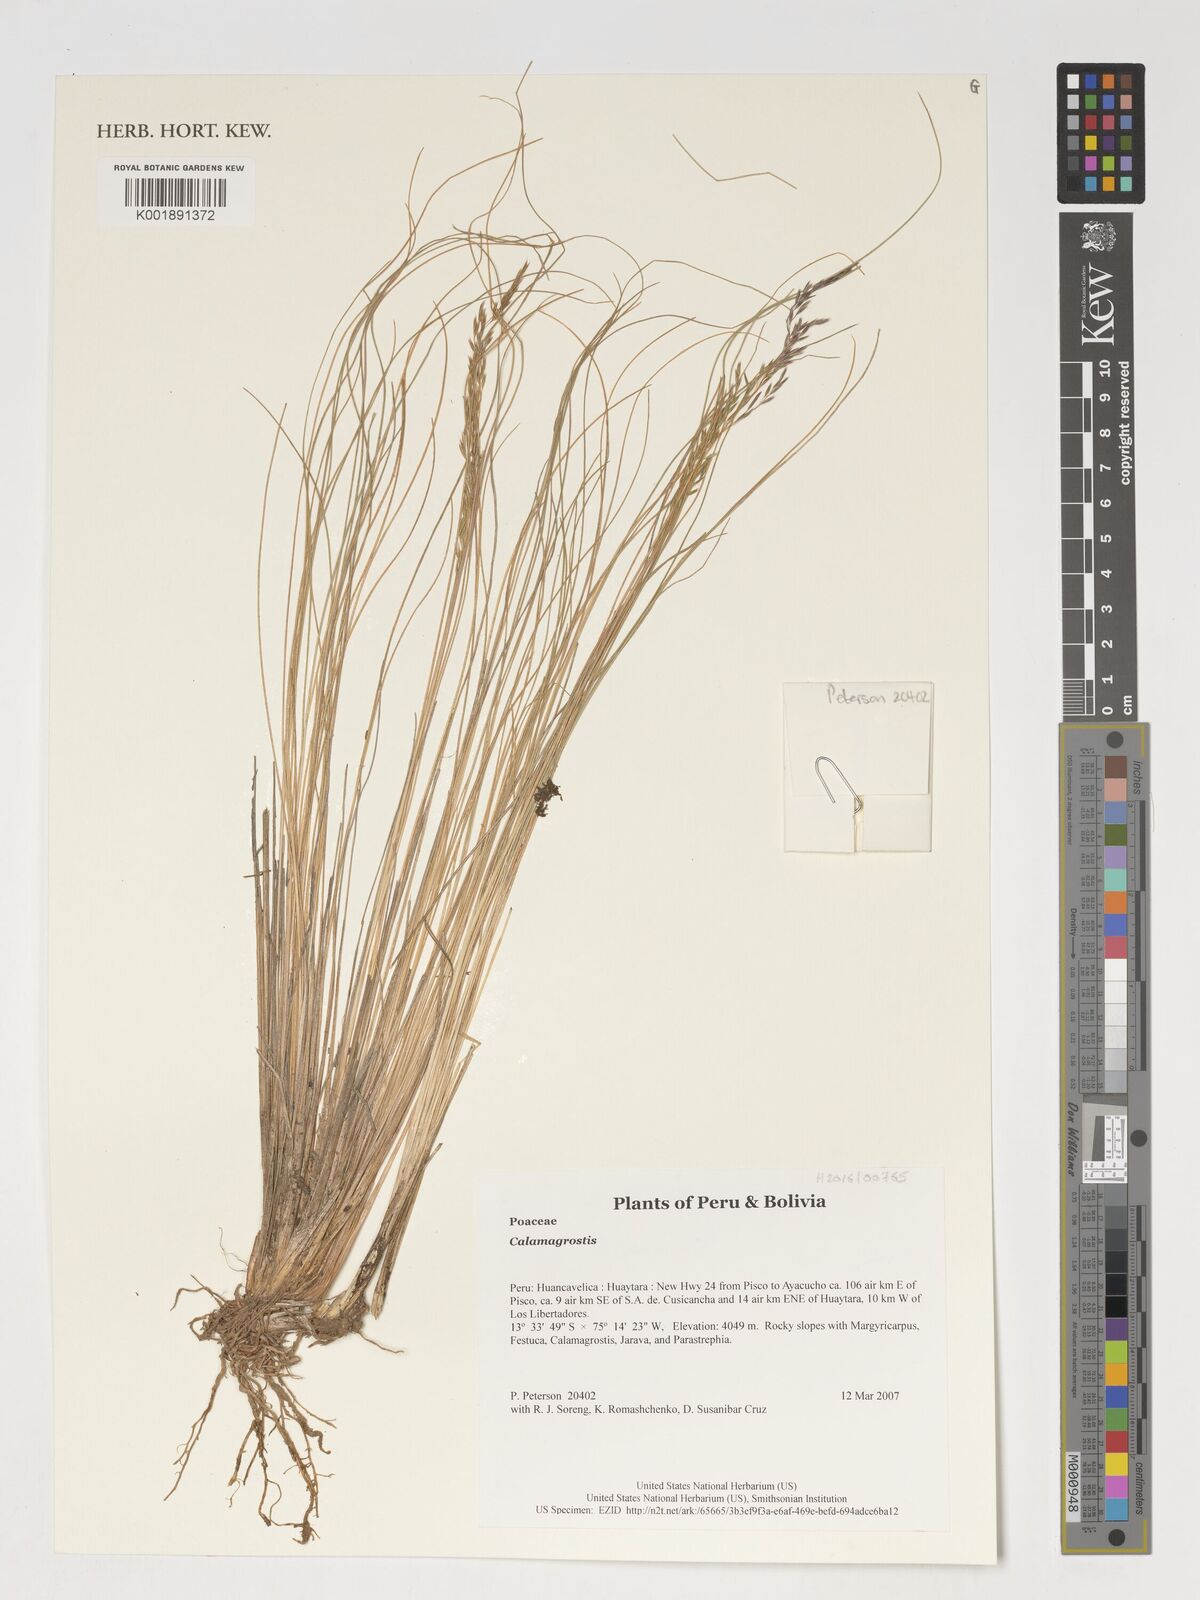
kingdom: Plantae
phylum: Tracheophyta
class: Liliopsida
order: Poales
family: Poaceae
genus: Calamagrostis
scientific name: Calamagrostis
